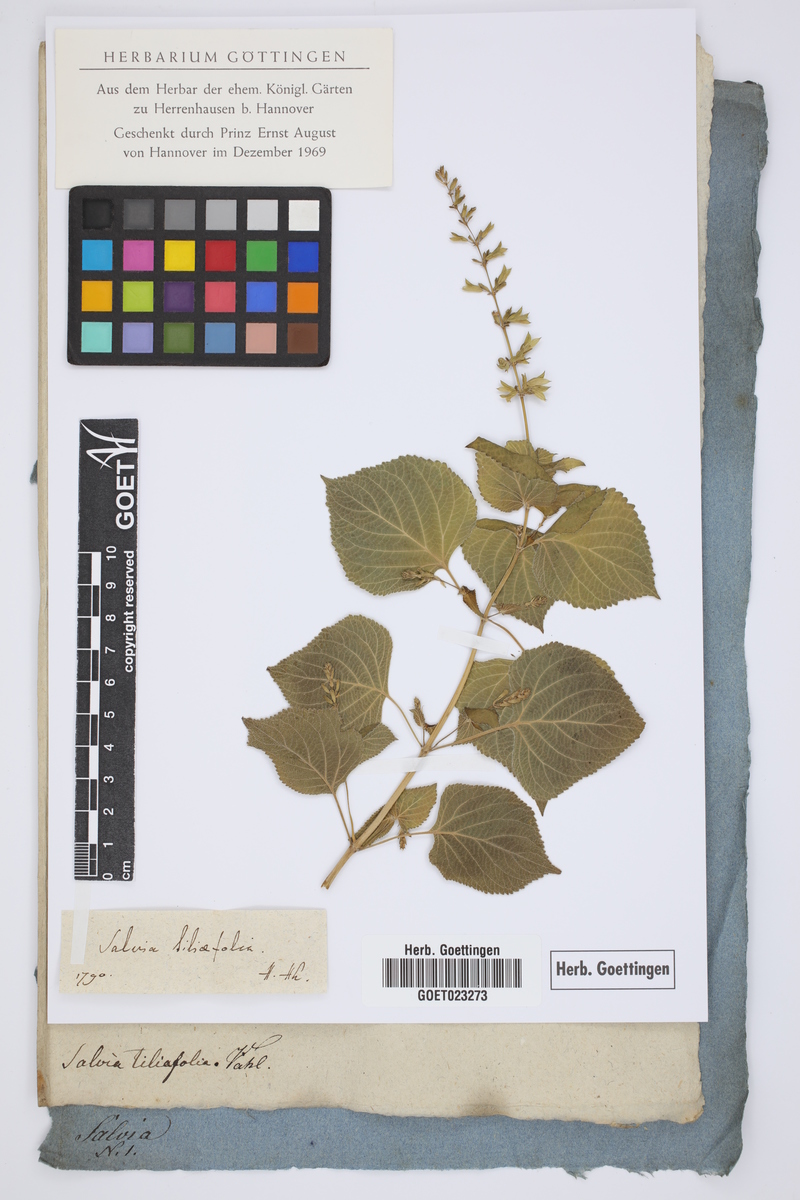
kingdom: Plantae
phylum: Tracheophyta
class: Magnoliopsida
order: Lamiales
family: Lamiaceae
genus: Salvia
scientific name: Salvia tiliifolia
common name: Lindenleaf sage
